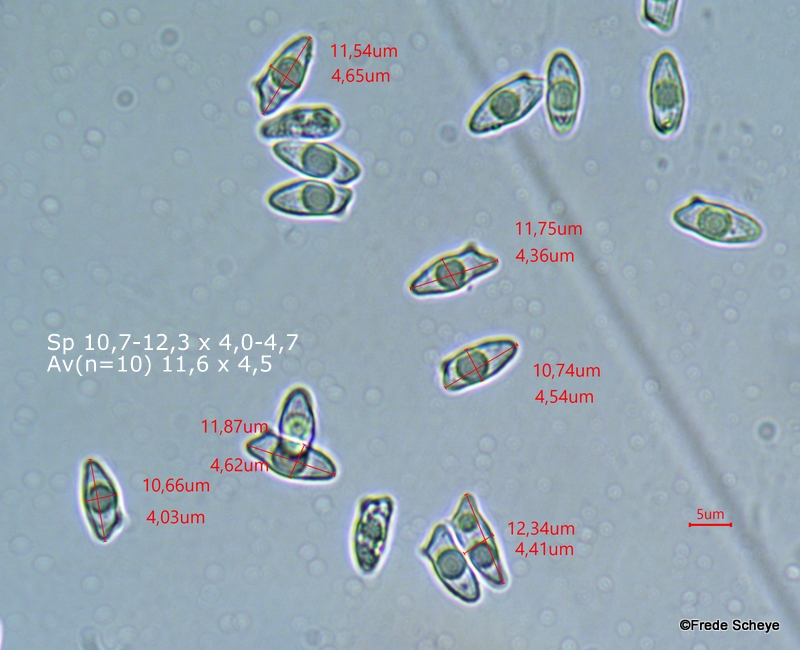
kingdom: Fungi
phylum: Basidiomycota
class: Agaricomycetes
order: Agaricales
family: Agaricaceae
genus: Lepiota
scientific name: Lepiota castanea
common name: kastaniebrun parasolhat
